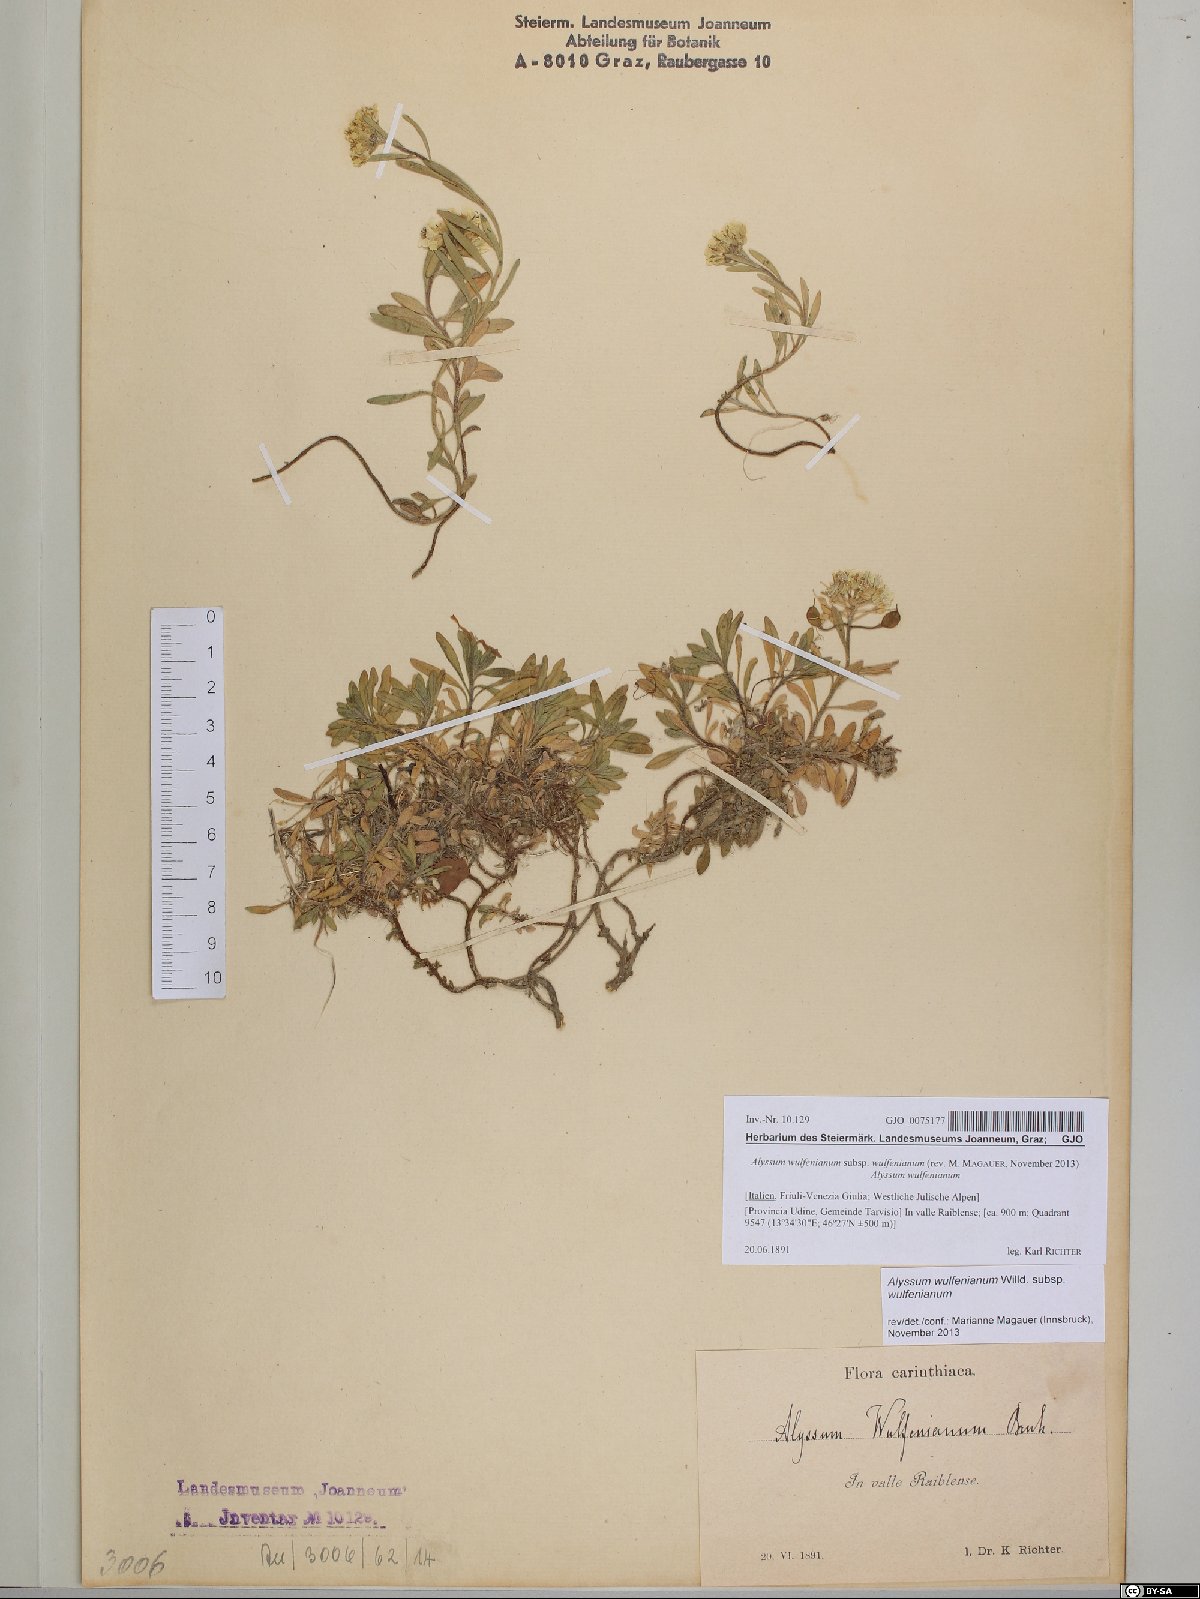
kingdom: Plantae
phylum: Tracheophyta
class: Magnoliopsida
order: Brassicales
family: Brassicaceae
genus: Alyssum
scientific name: Alyssum wulfenianum
